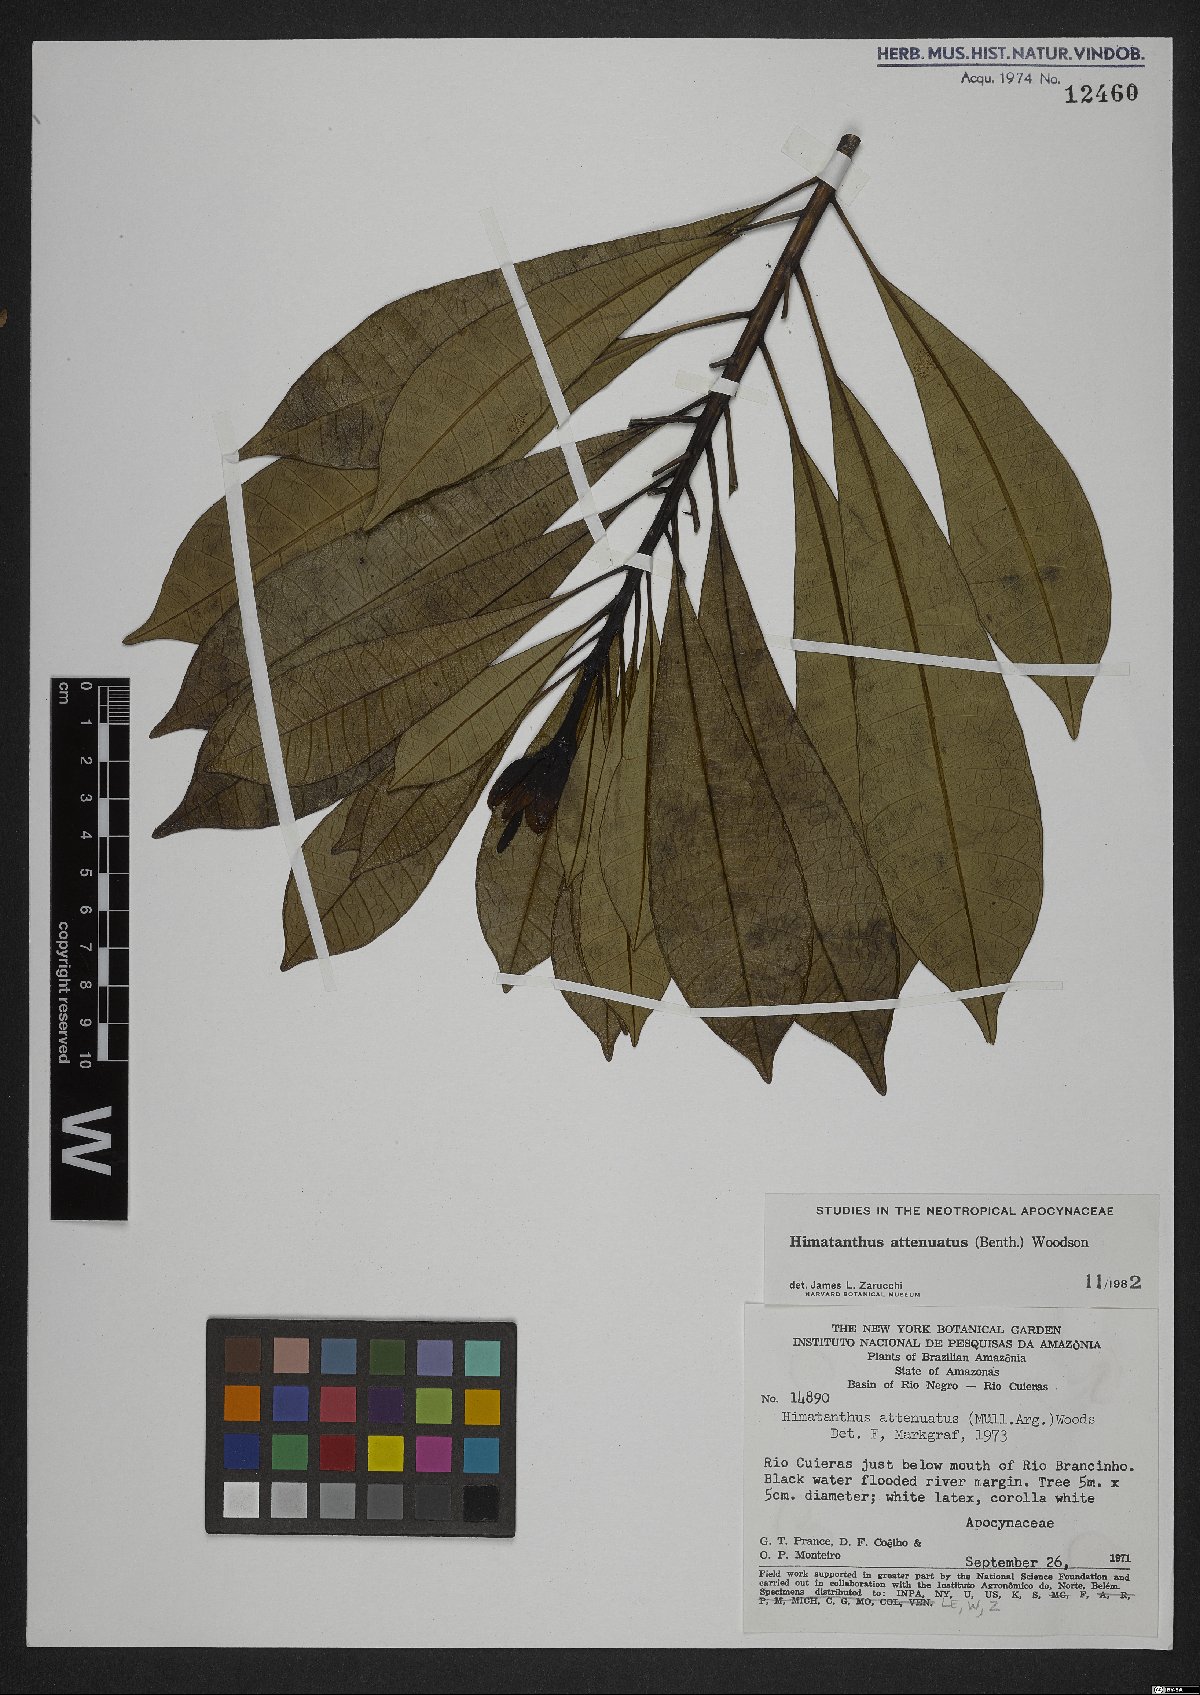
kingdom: Plantae
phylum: Tracheophyta
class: Magnoliopsida
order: Gentianales
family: Apocynaceae
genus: Himatanthus
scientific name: Himatanthus attenuatus
